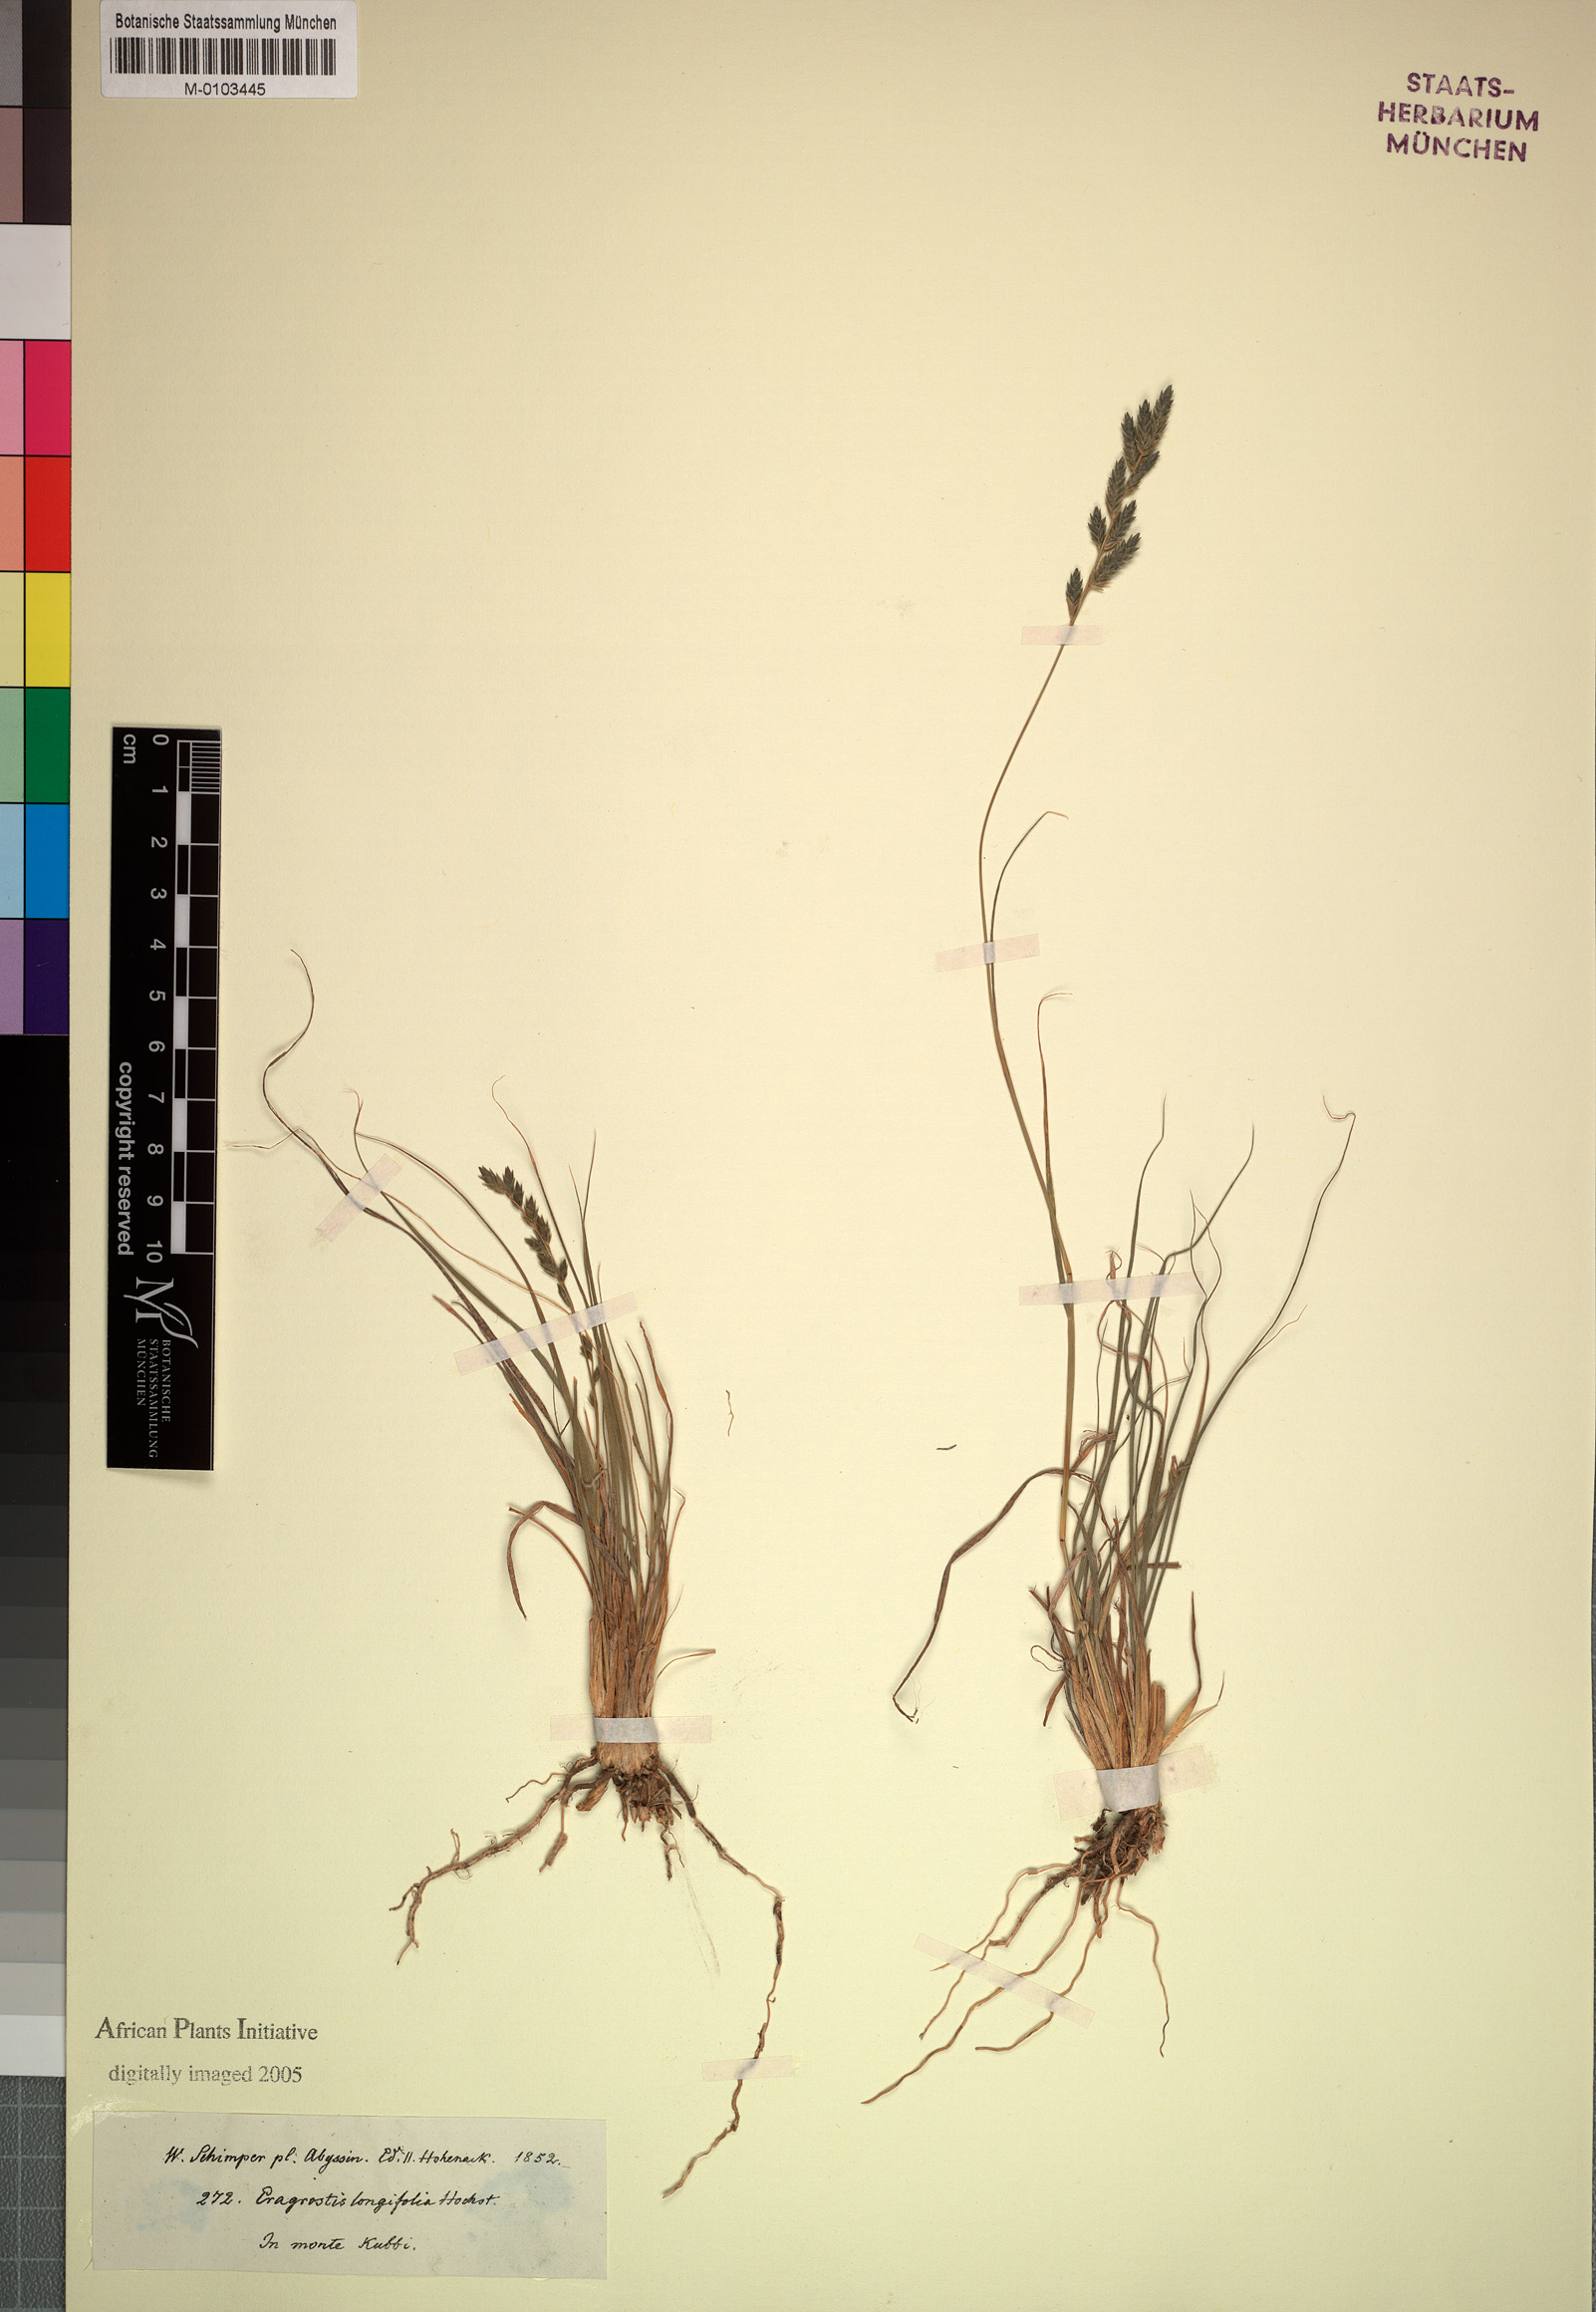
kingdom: Plantae
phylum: Tracheophyta
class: Liliopsida
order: Poales
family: Poaceae
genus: Eragrostis
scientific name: Eragrostis longifolia
